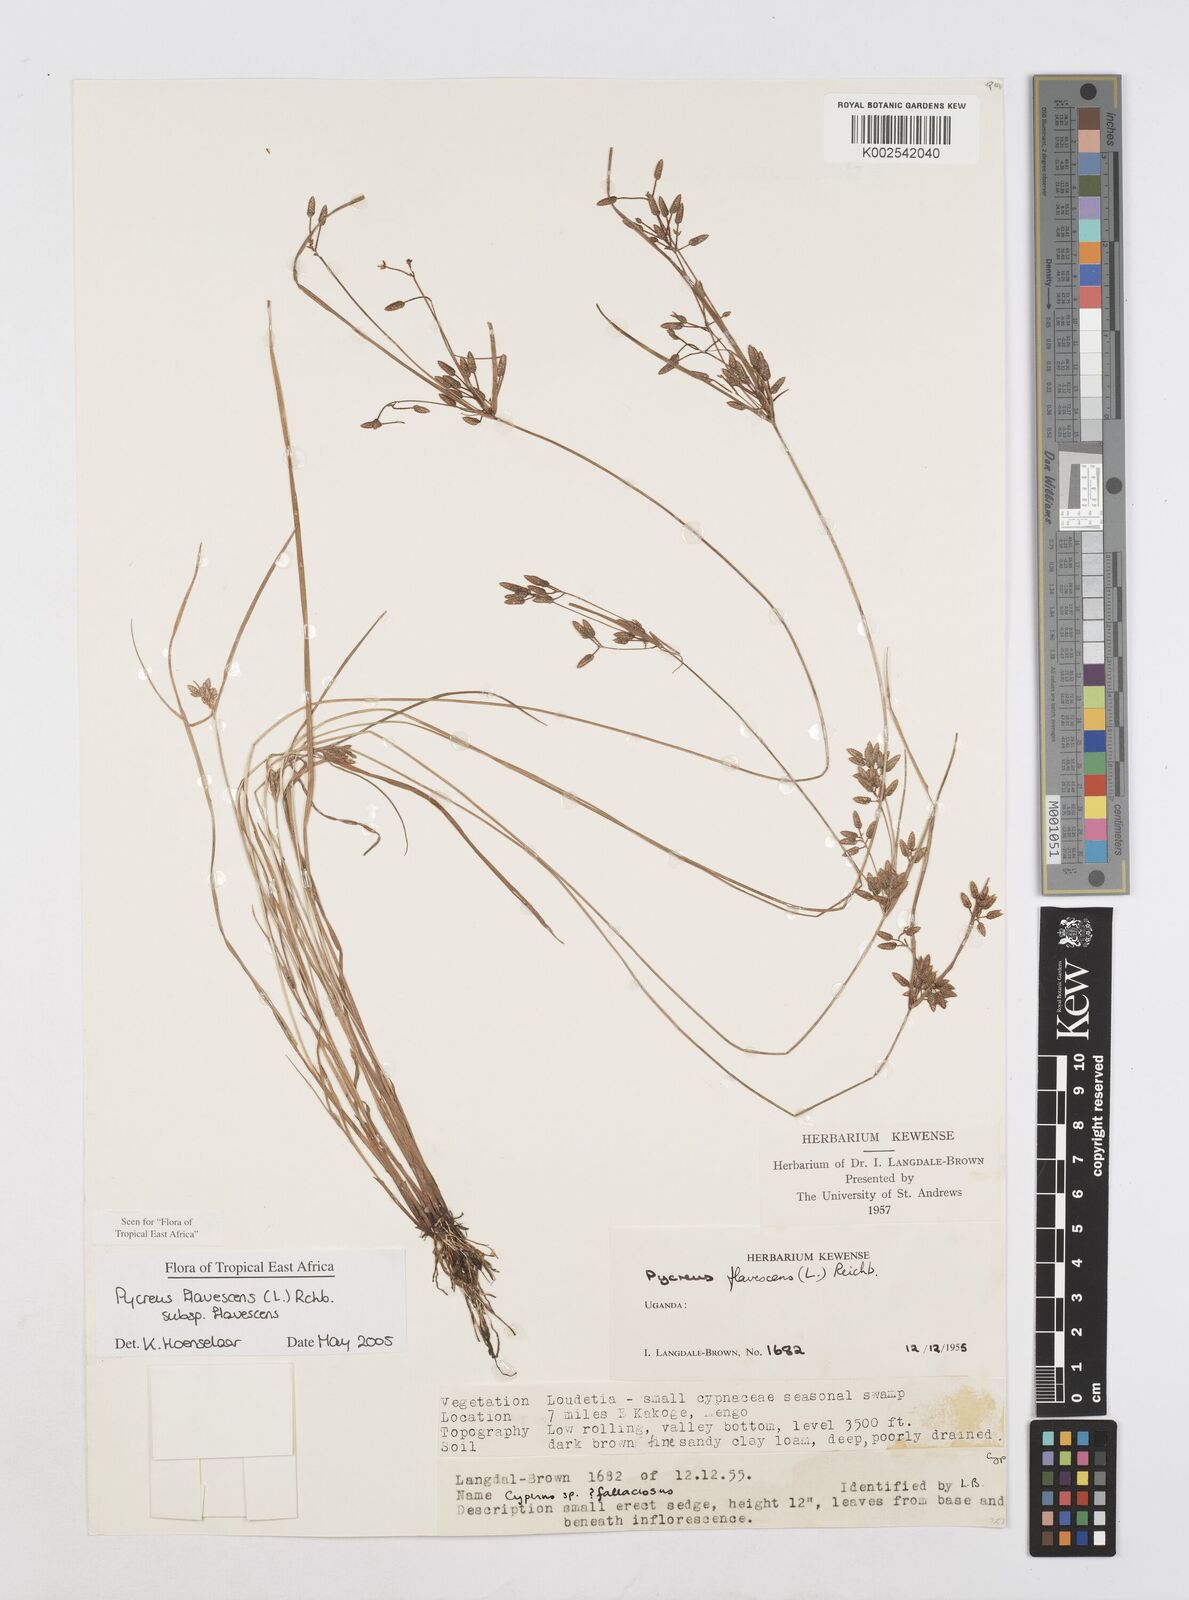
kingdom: Plantae
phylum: Tracheophyta
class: Liliopsida
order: Poales
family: Cyperaceae
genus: Cyperus
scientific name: Cyperus flavescens
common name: Yellow galingale
